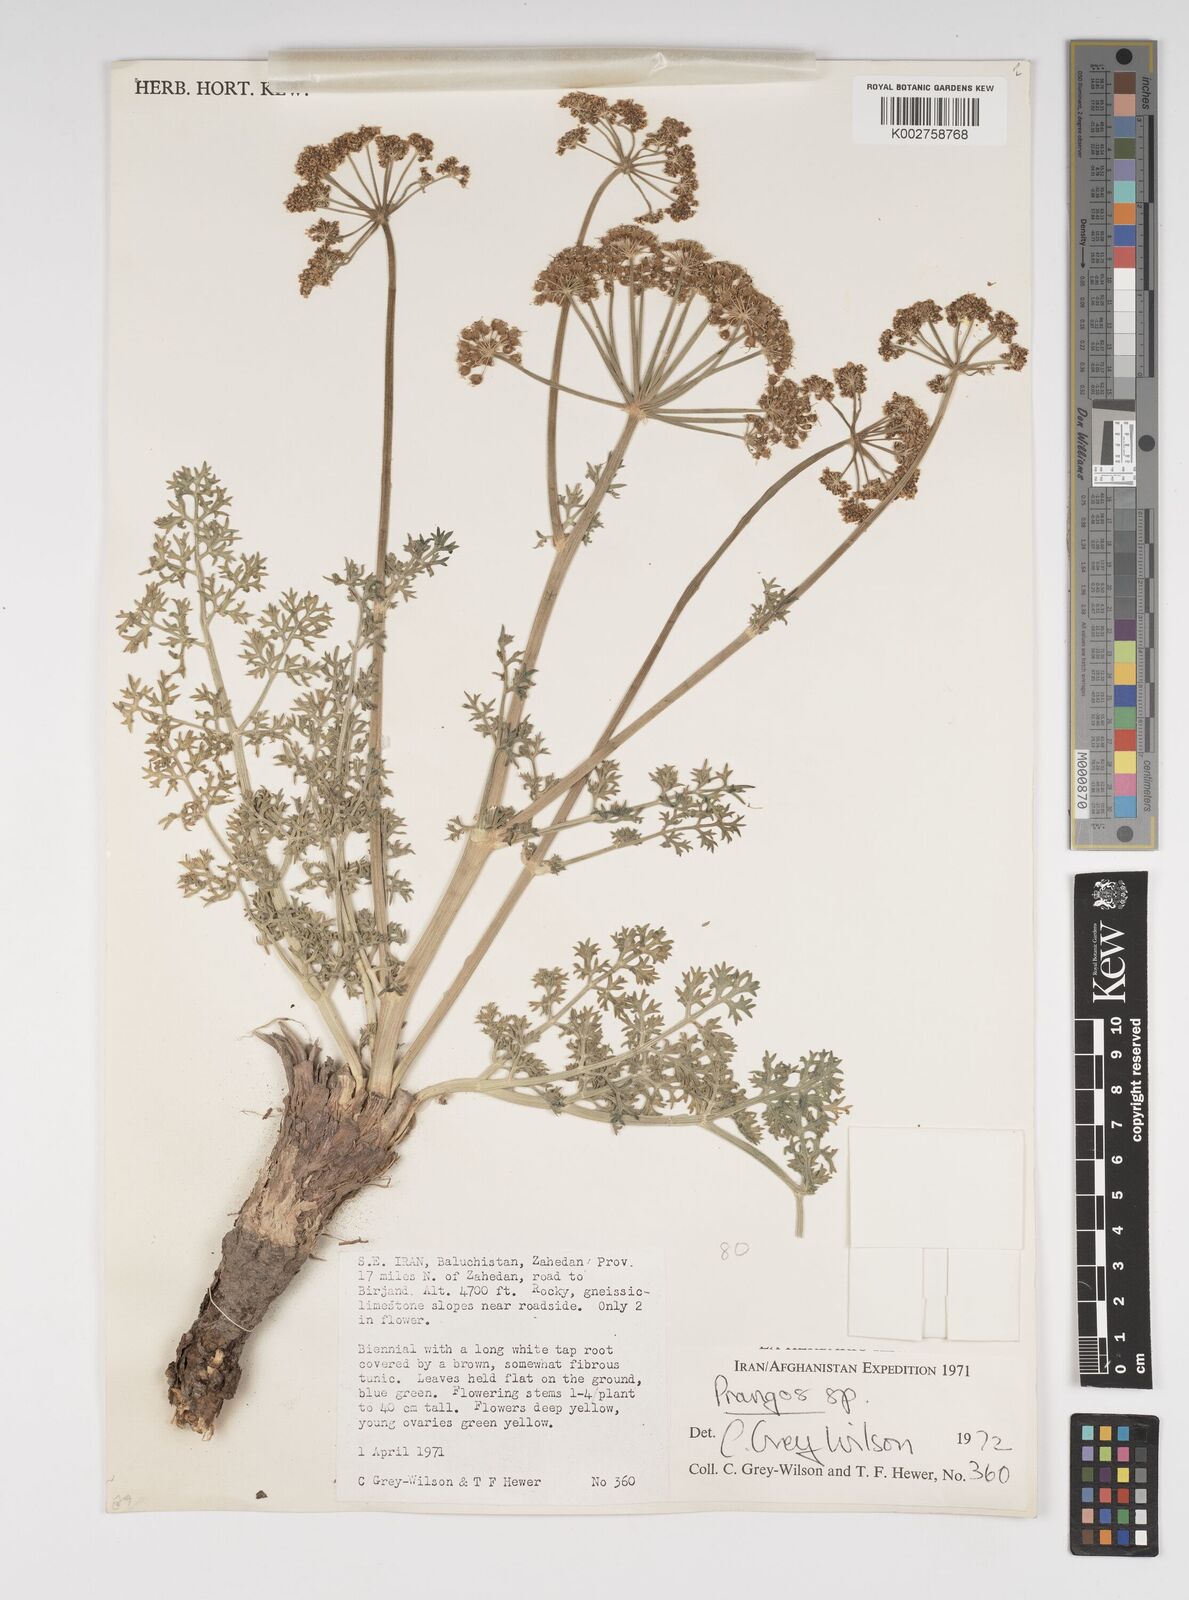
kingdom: Plantae
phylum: Tracheophyta
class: Magnoliopsida
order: Apiales
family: Apiaceae
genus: Cachrys
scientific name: Cachrys
